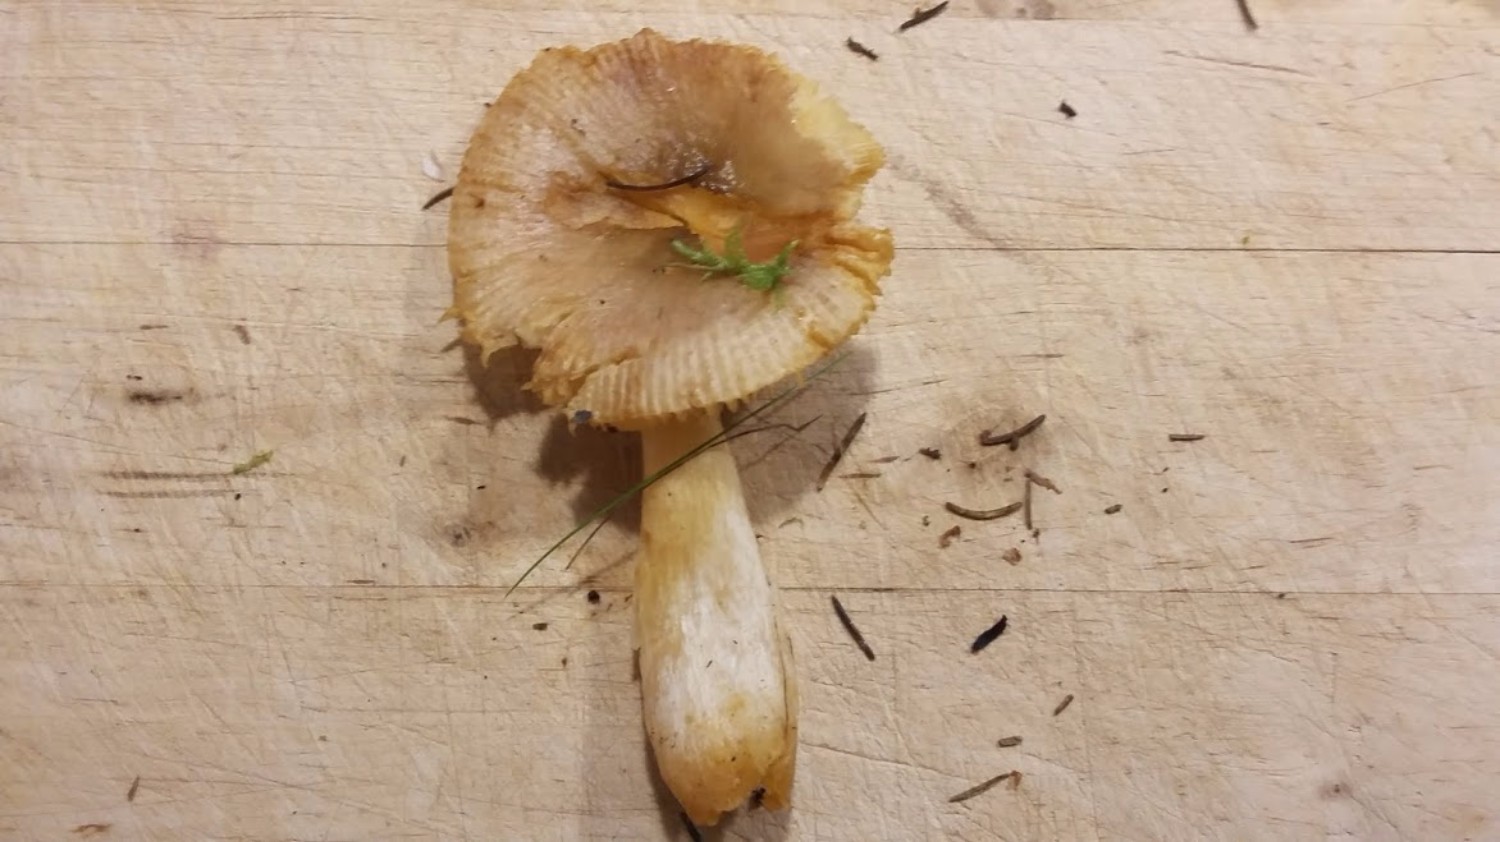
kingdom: Fungi
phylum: Basidiomycota
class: Agaricomycetes
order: Russulales
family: Russulaceae
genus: Russula
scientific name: Russula puellaris
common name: gulstokket skørhat
